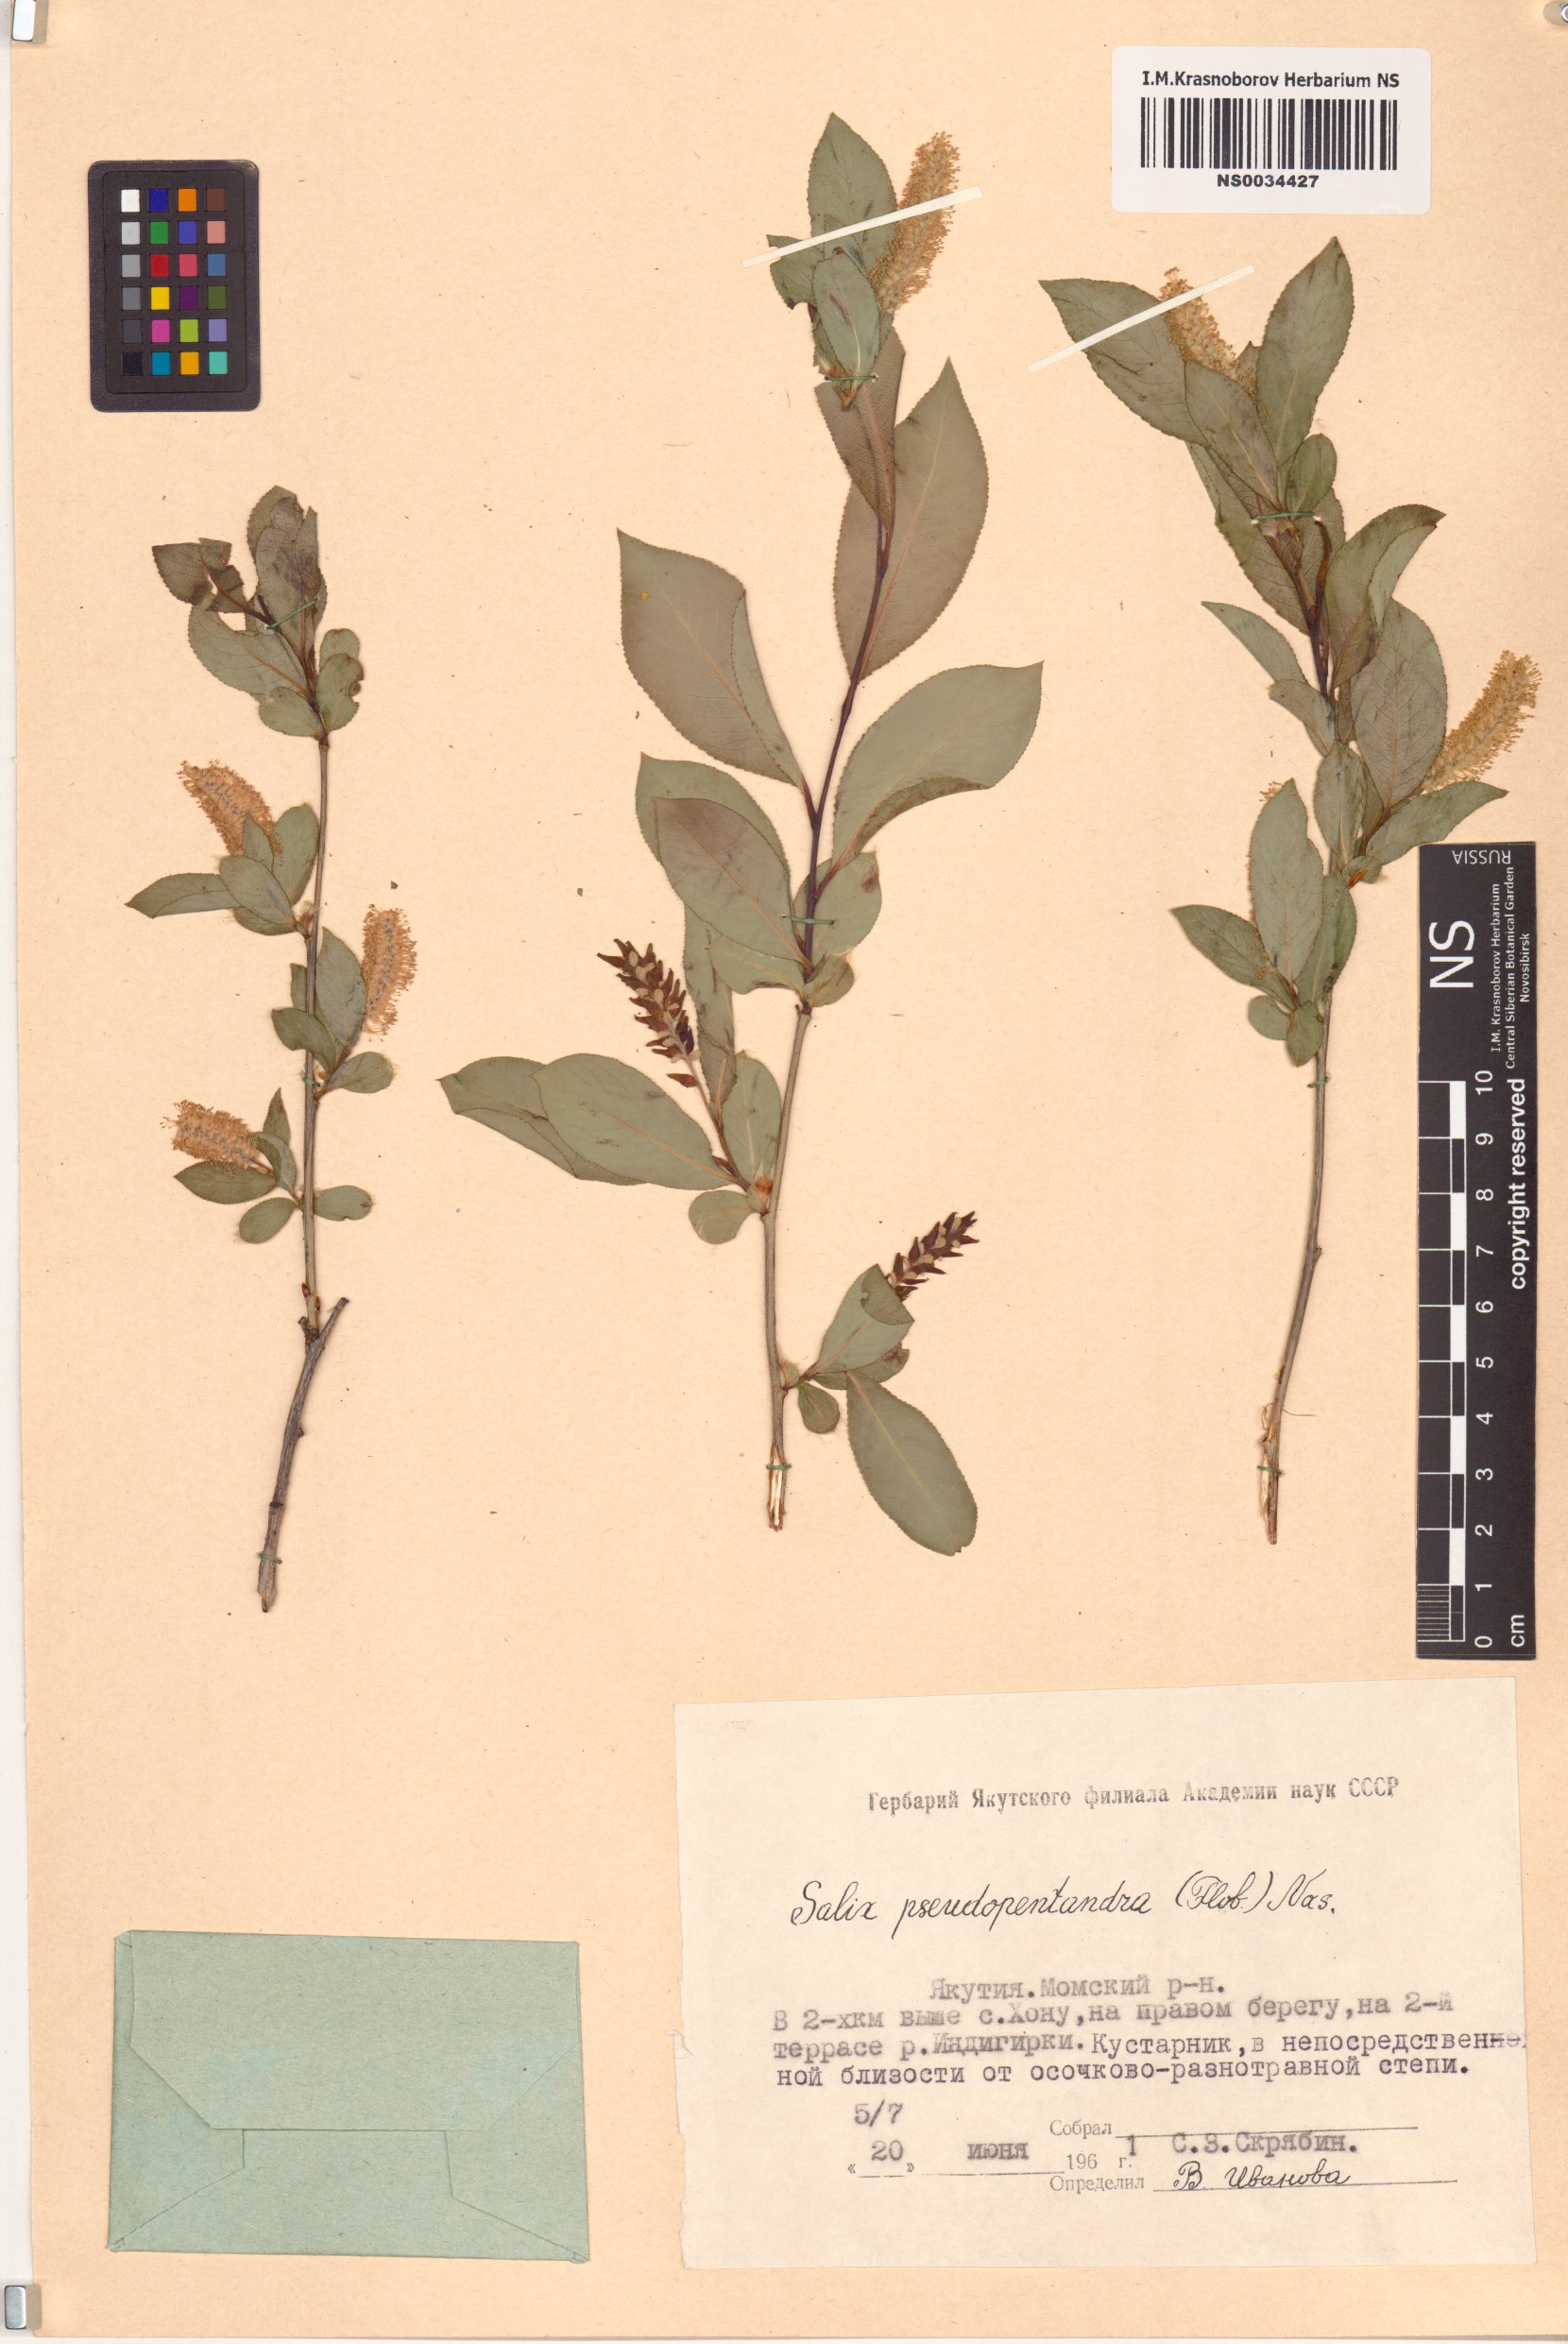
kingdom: Plantae
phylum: Tracheophyta
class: Magnoliopsida
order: Malpighiales
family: Salicaceae
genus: Salix
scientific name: Salix pseudopentandra
